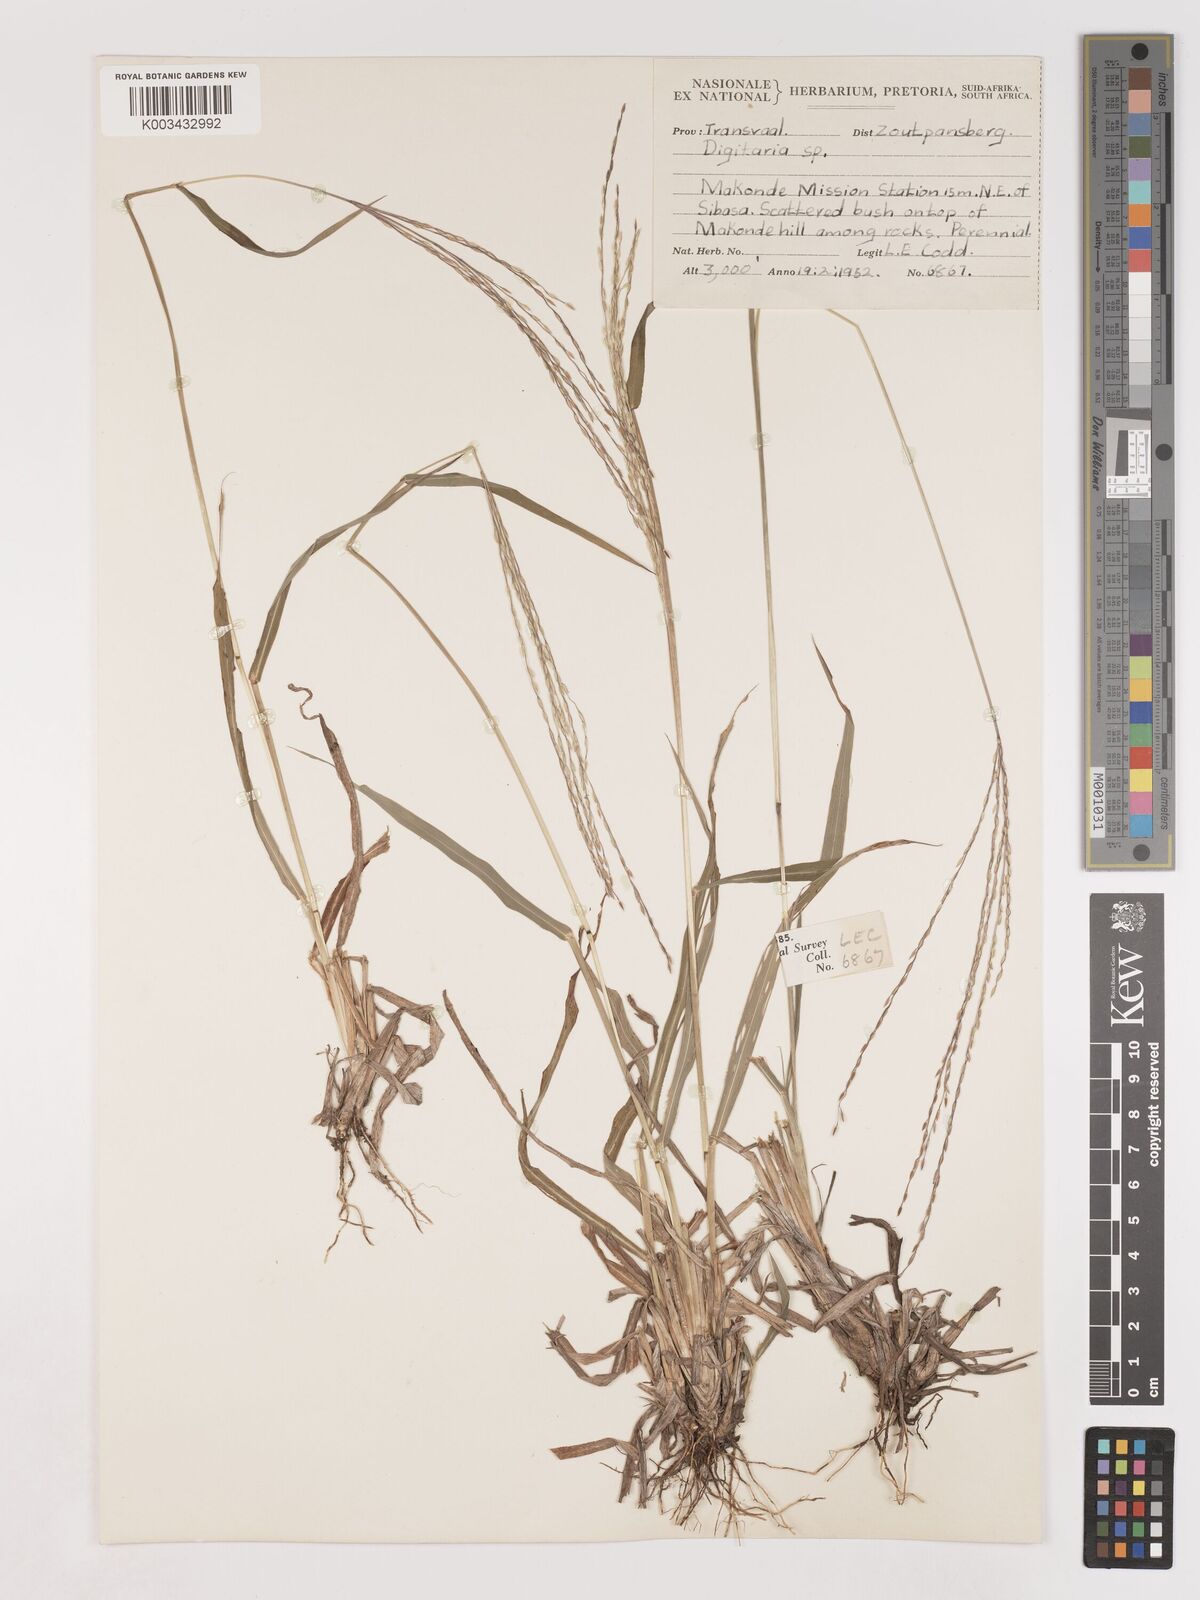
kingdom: Plantae
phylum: Tracheophyta
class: Liliopsida
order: Poales
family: Poaceae
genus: Digitaria
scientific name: Digitaria gymnostachys
